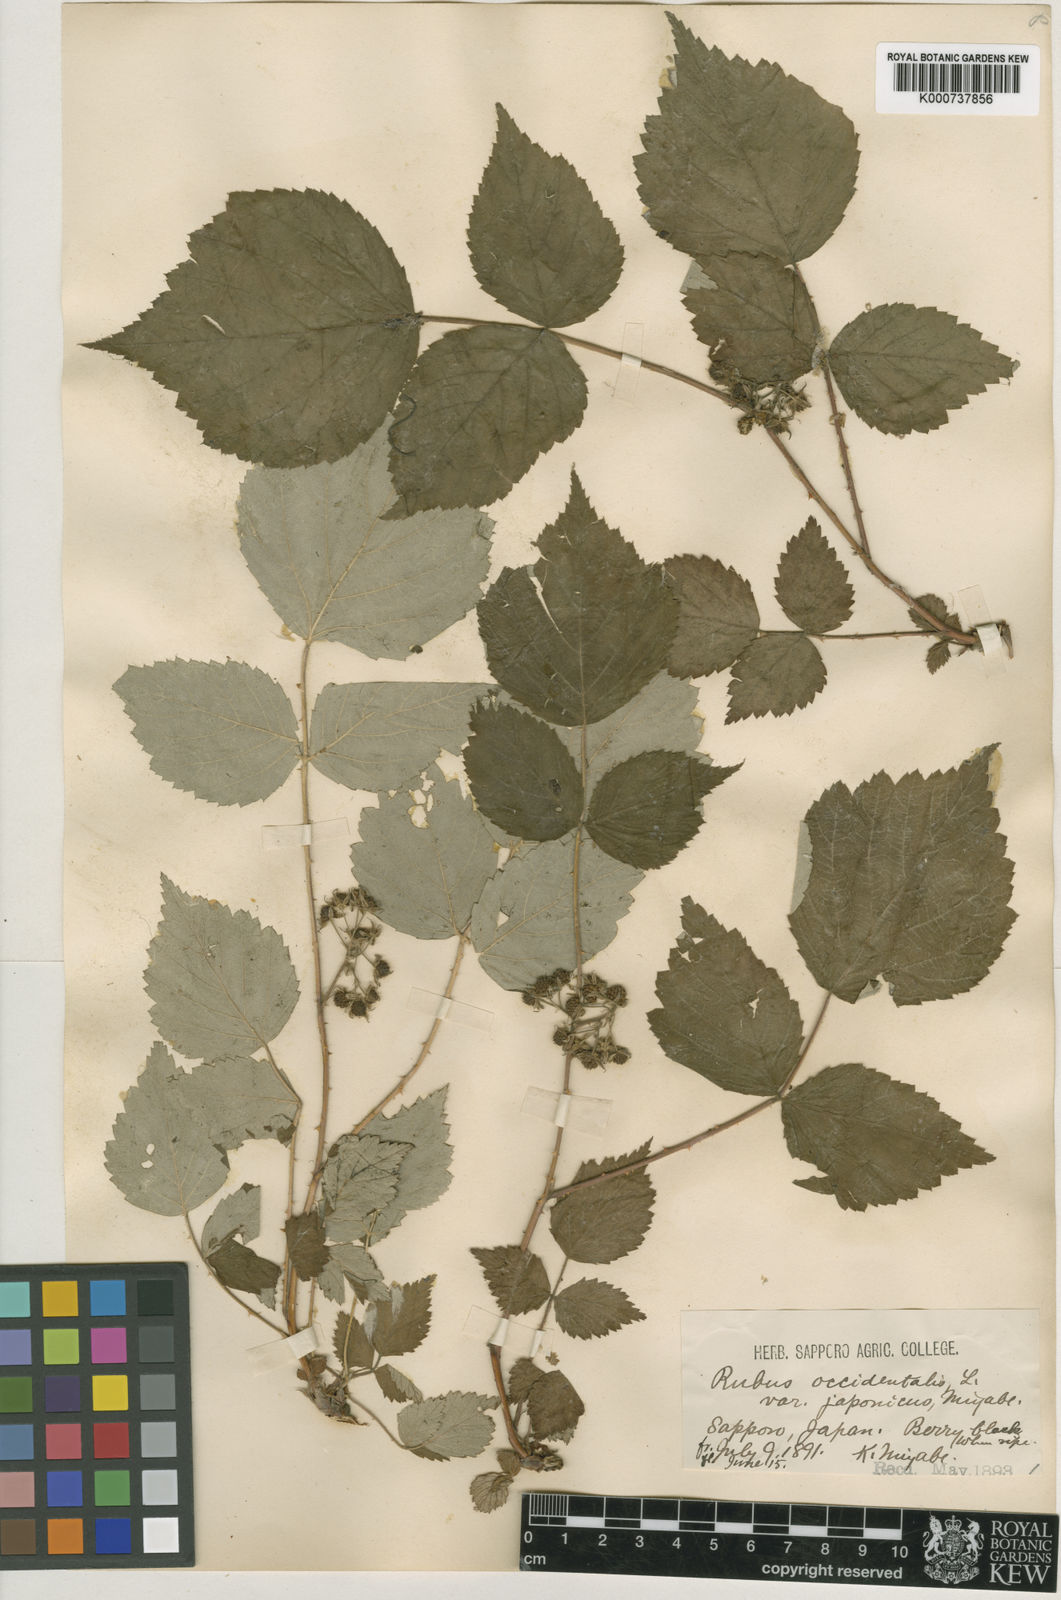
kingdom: Plantae
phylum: Tracheophyta
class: Magnoliopsida
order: Rosales
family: Rosaceae
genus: Rubus
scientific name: Rubus mesogaeus
